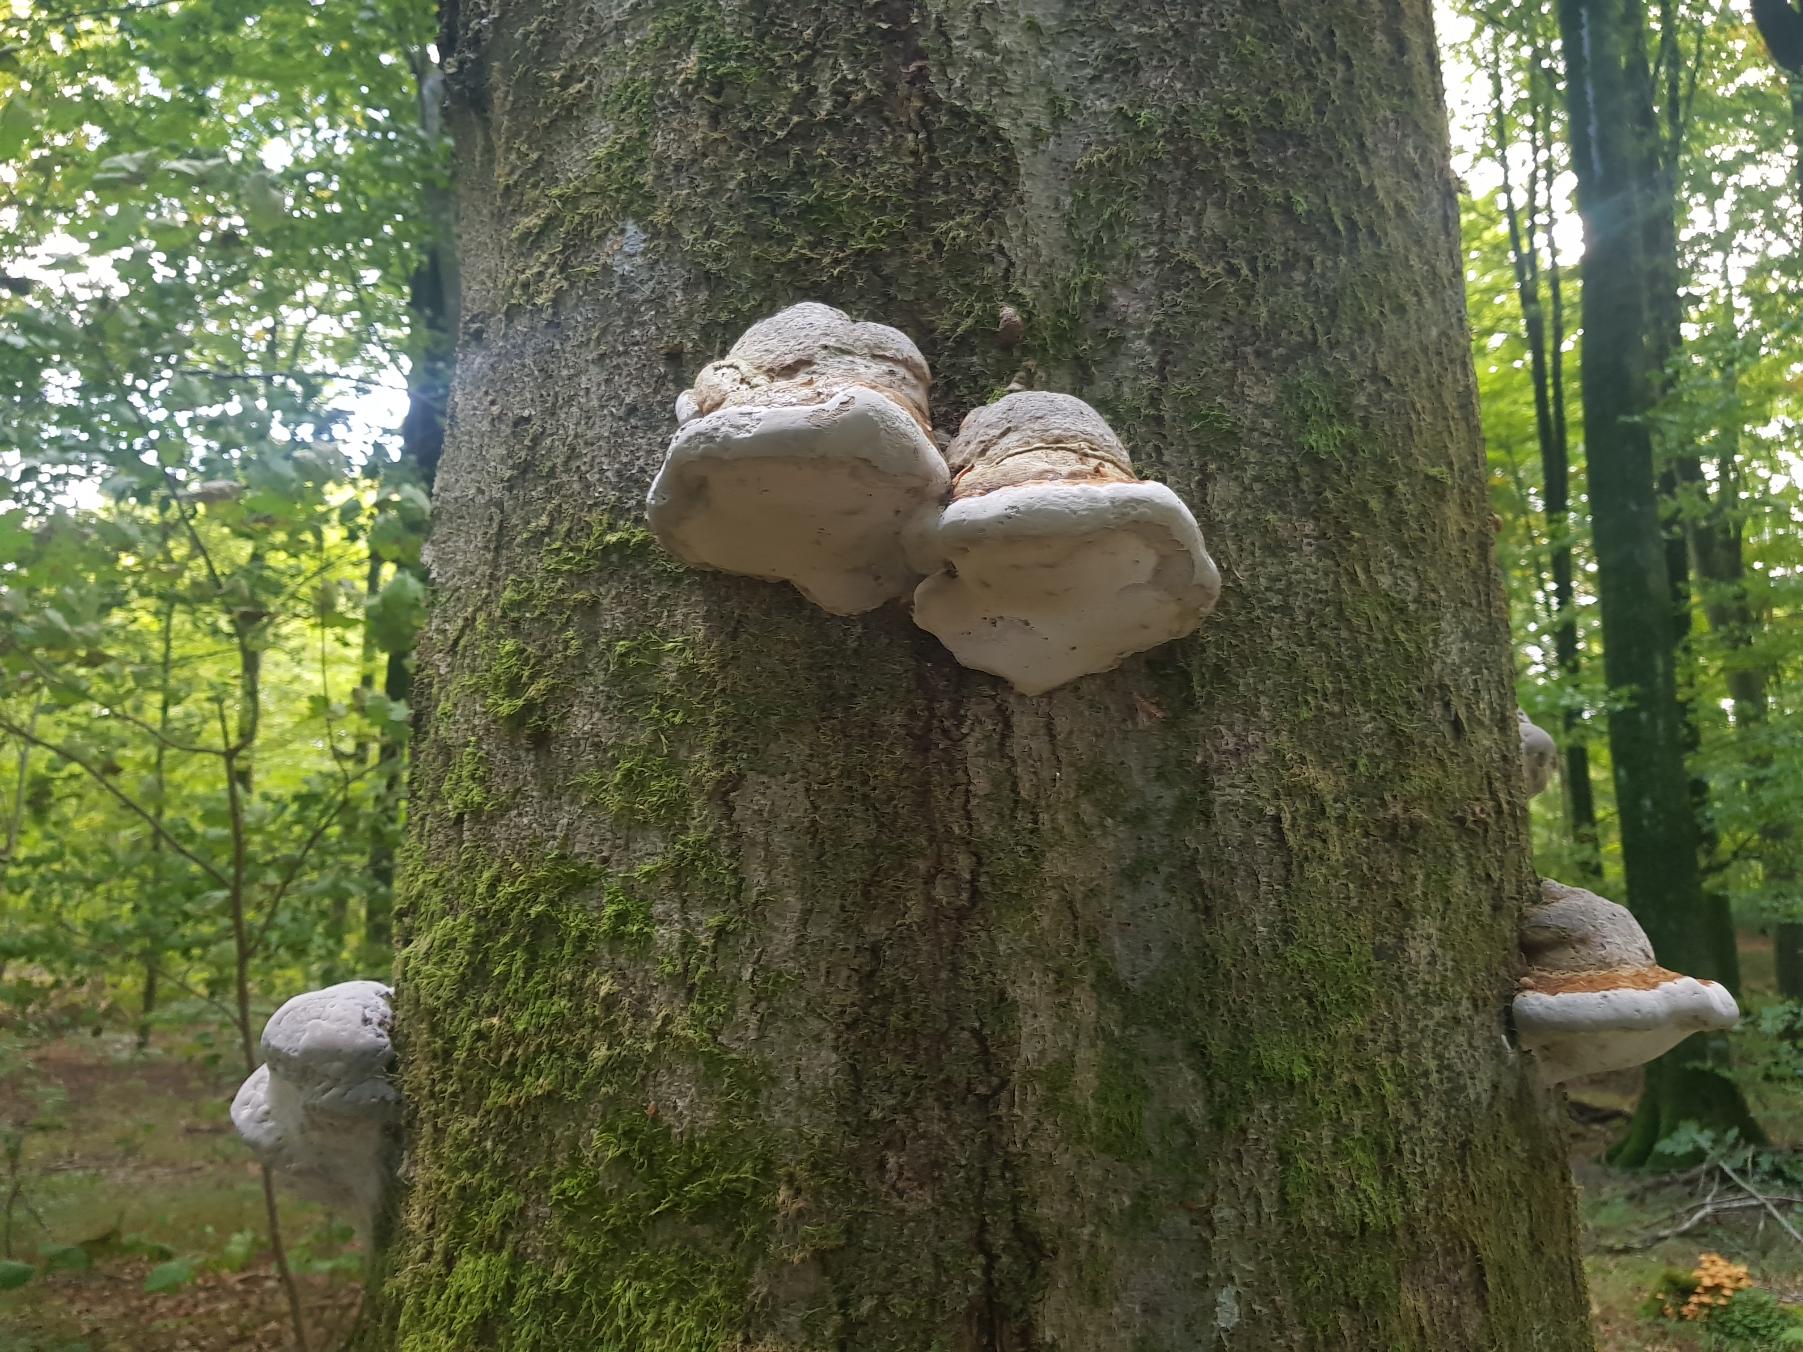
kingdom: Fungi
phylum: Basidiomycota
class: Agaricomycetes
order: Polyporales
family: Polyporaceae
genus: Fomes
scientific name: Fomes fomentarius
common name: Tøndersvamp
